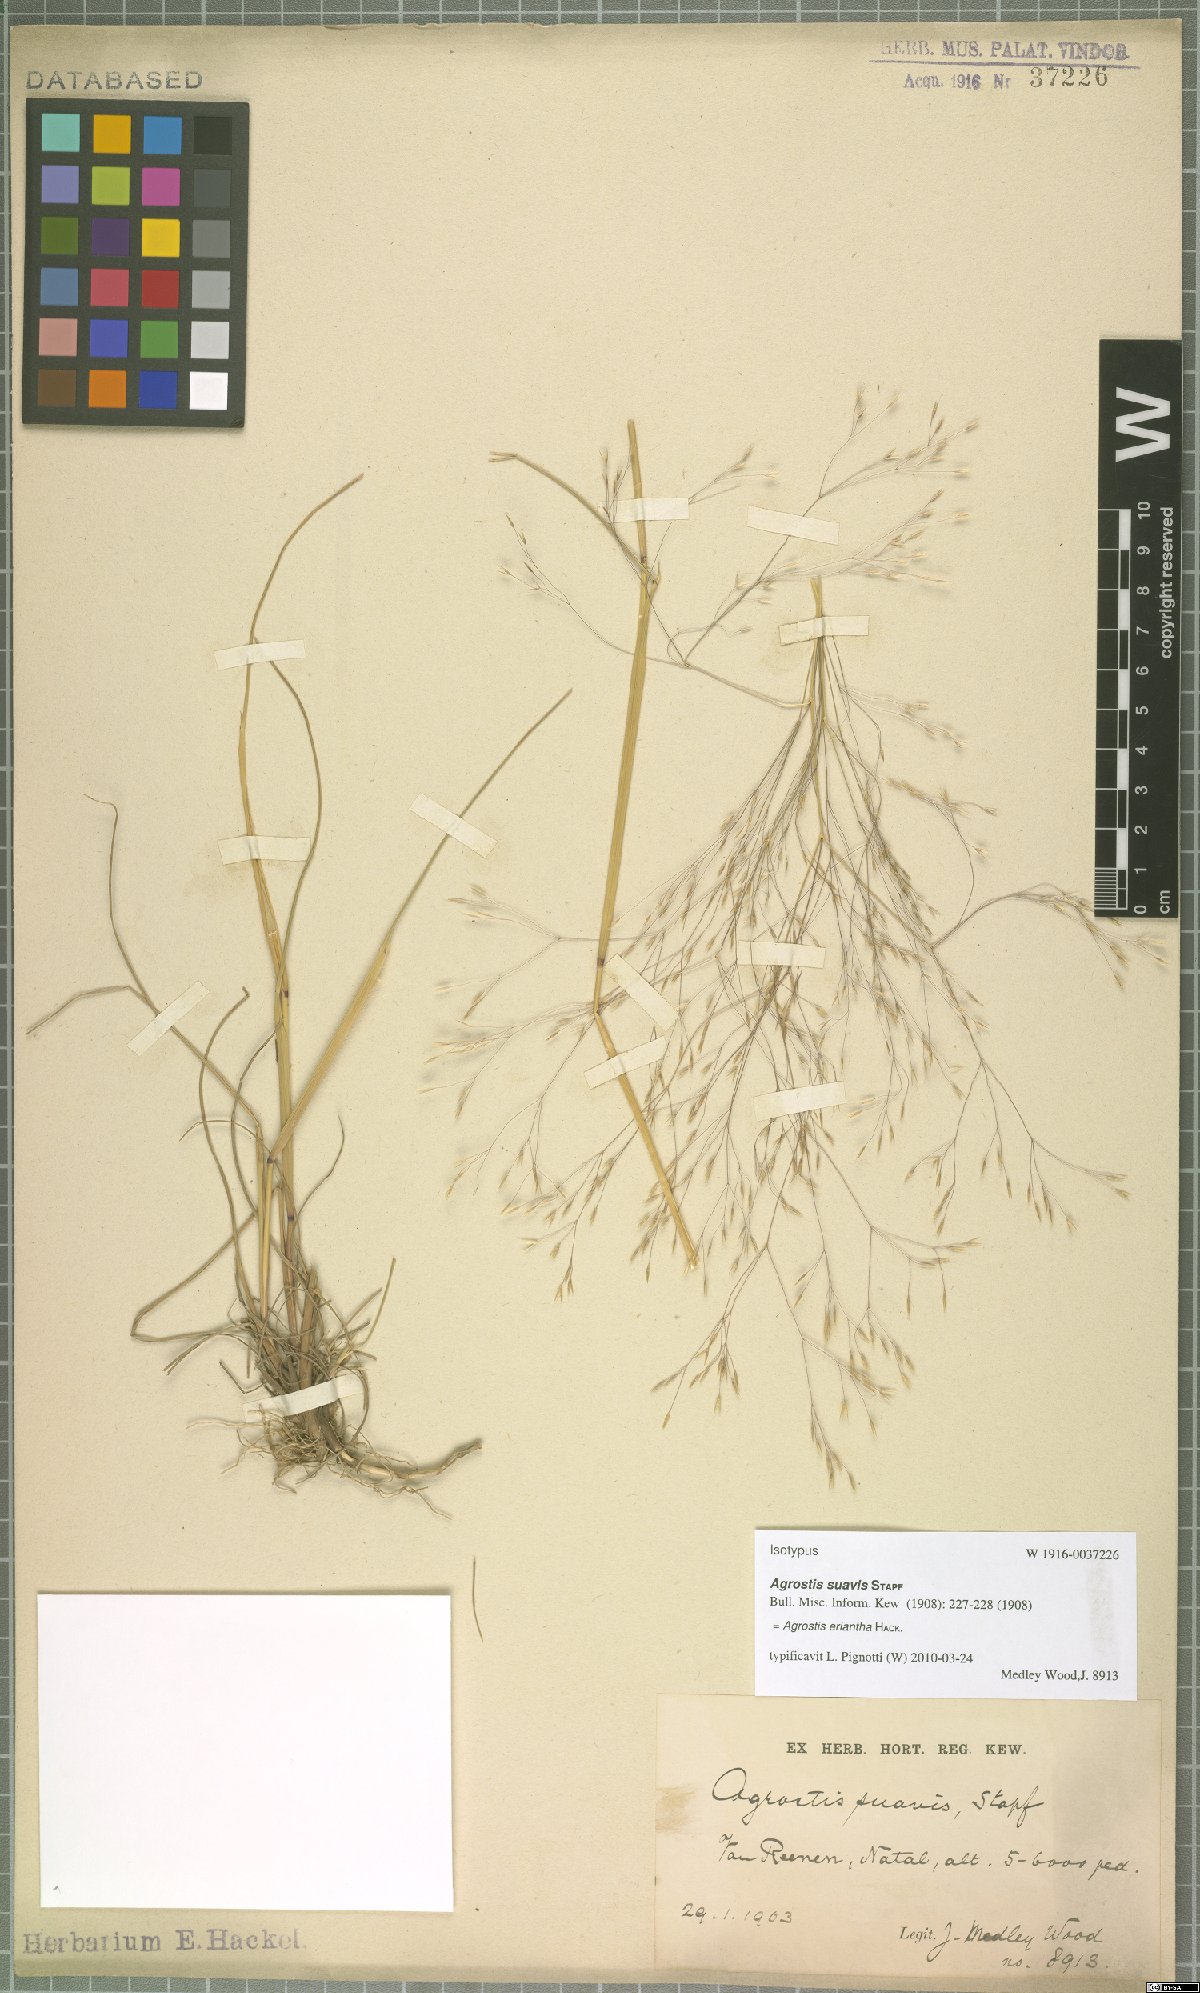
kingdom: Plantae
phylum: Tracheophyta
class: Liliopsida
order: Poales
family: Poaceae
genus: Lachnagrostis
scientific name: Lachnagrostis eriantha
